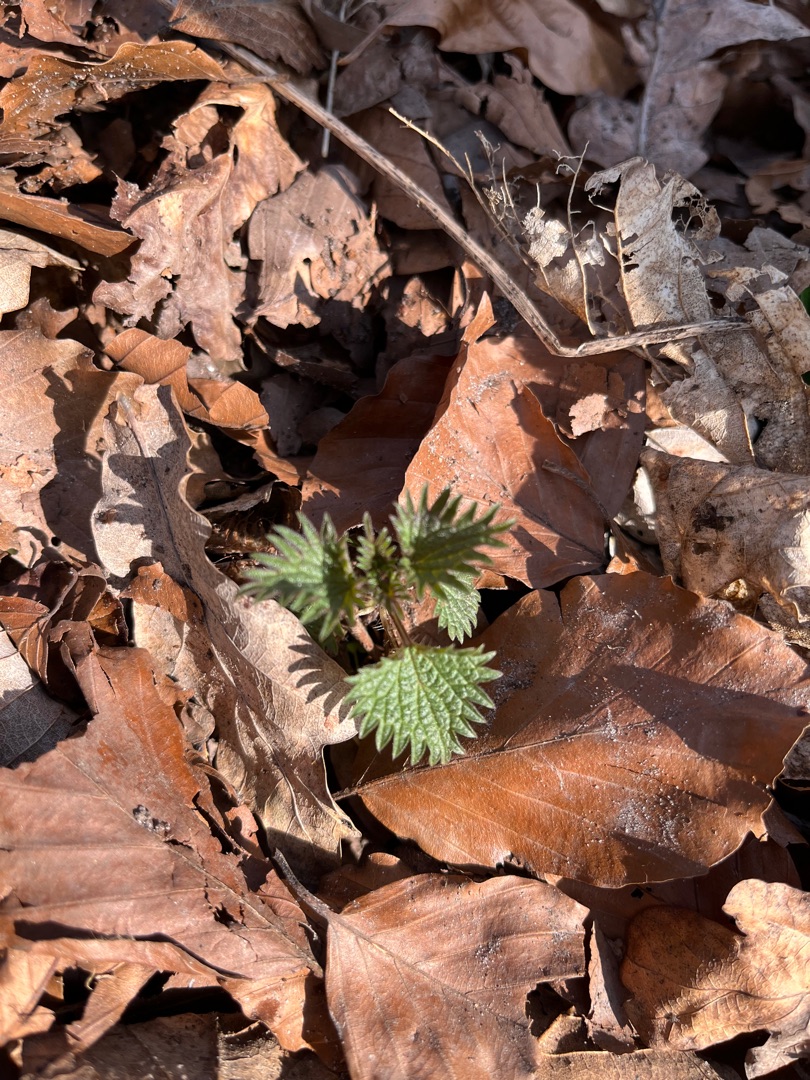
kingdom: Plantae
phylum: Tracheophyta
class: Magnoliopsida
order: Rosales
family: Urticaceae
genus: Urtica
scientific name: Urtica dioica
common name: Stor nælde
